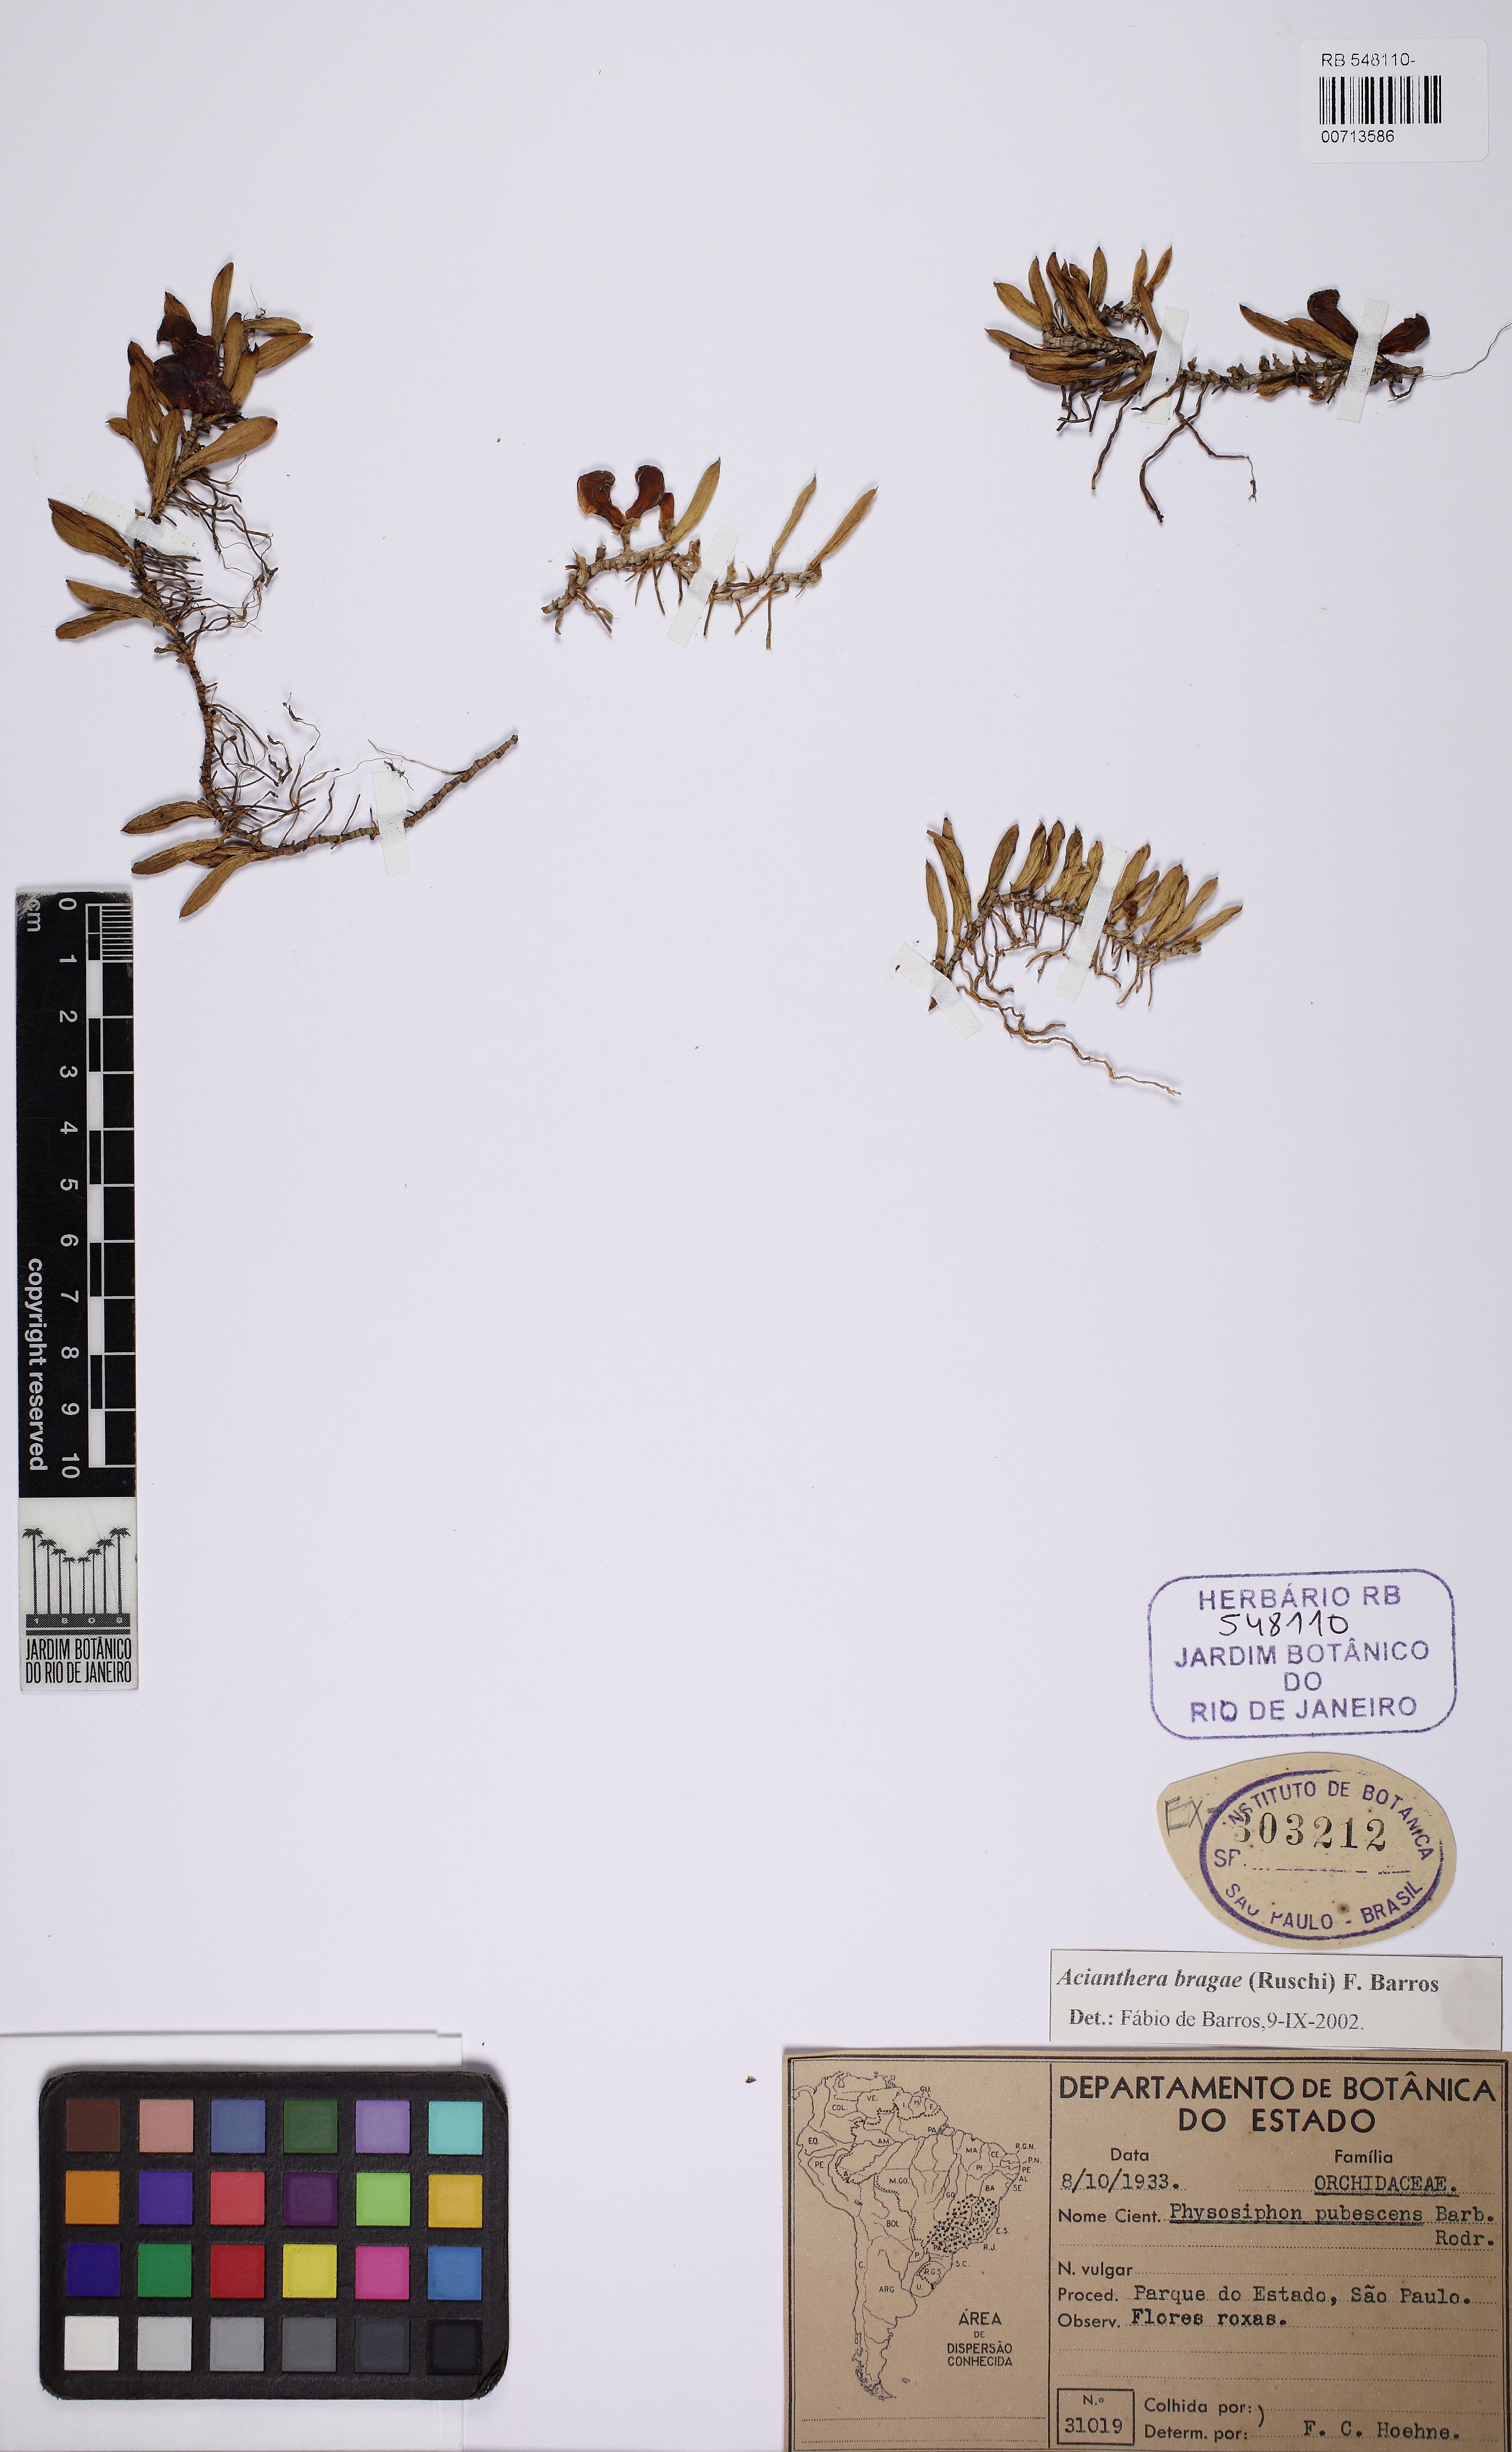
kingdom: Plantae
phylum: Tracheophyta
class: Liliopsida
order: Asparagales
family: Orchidaceae
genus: Acianthera
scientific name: Acianthera bragae
